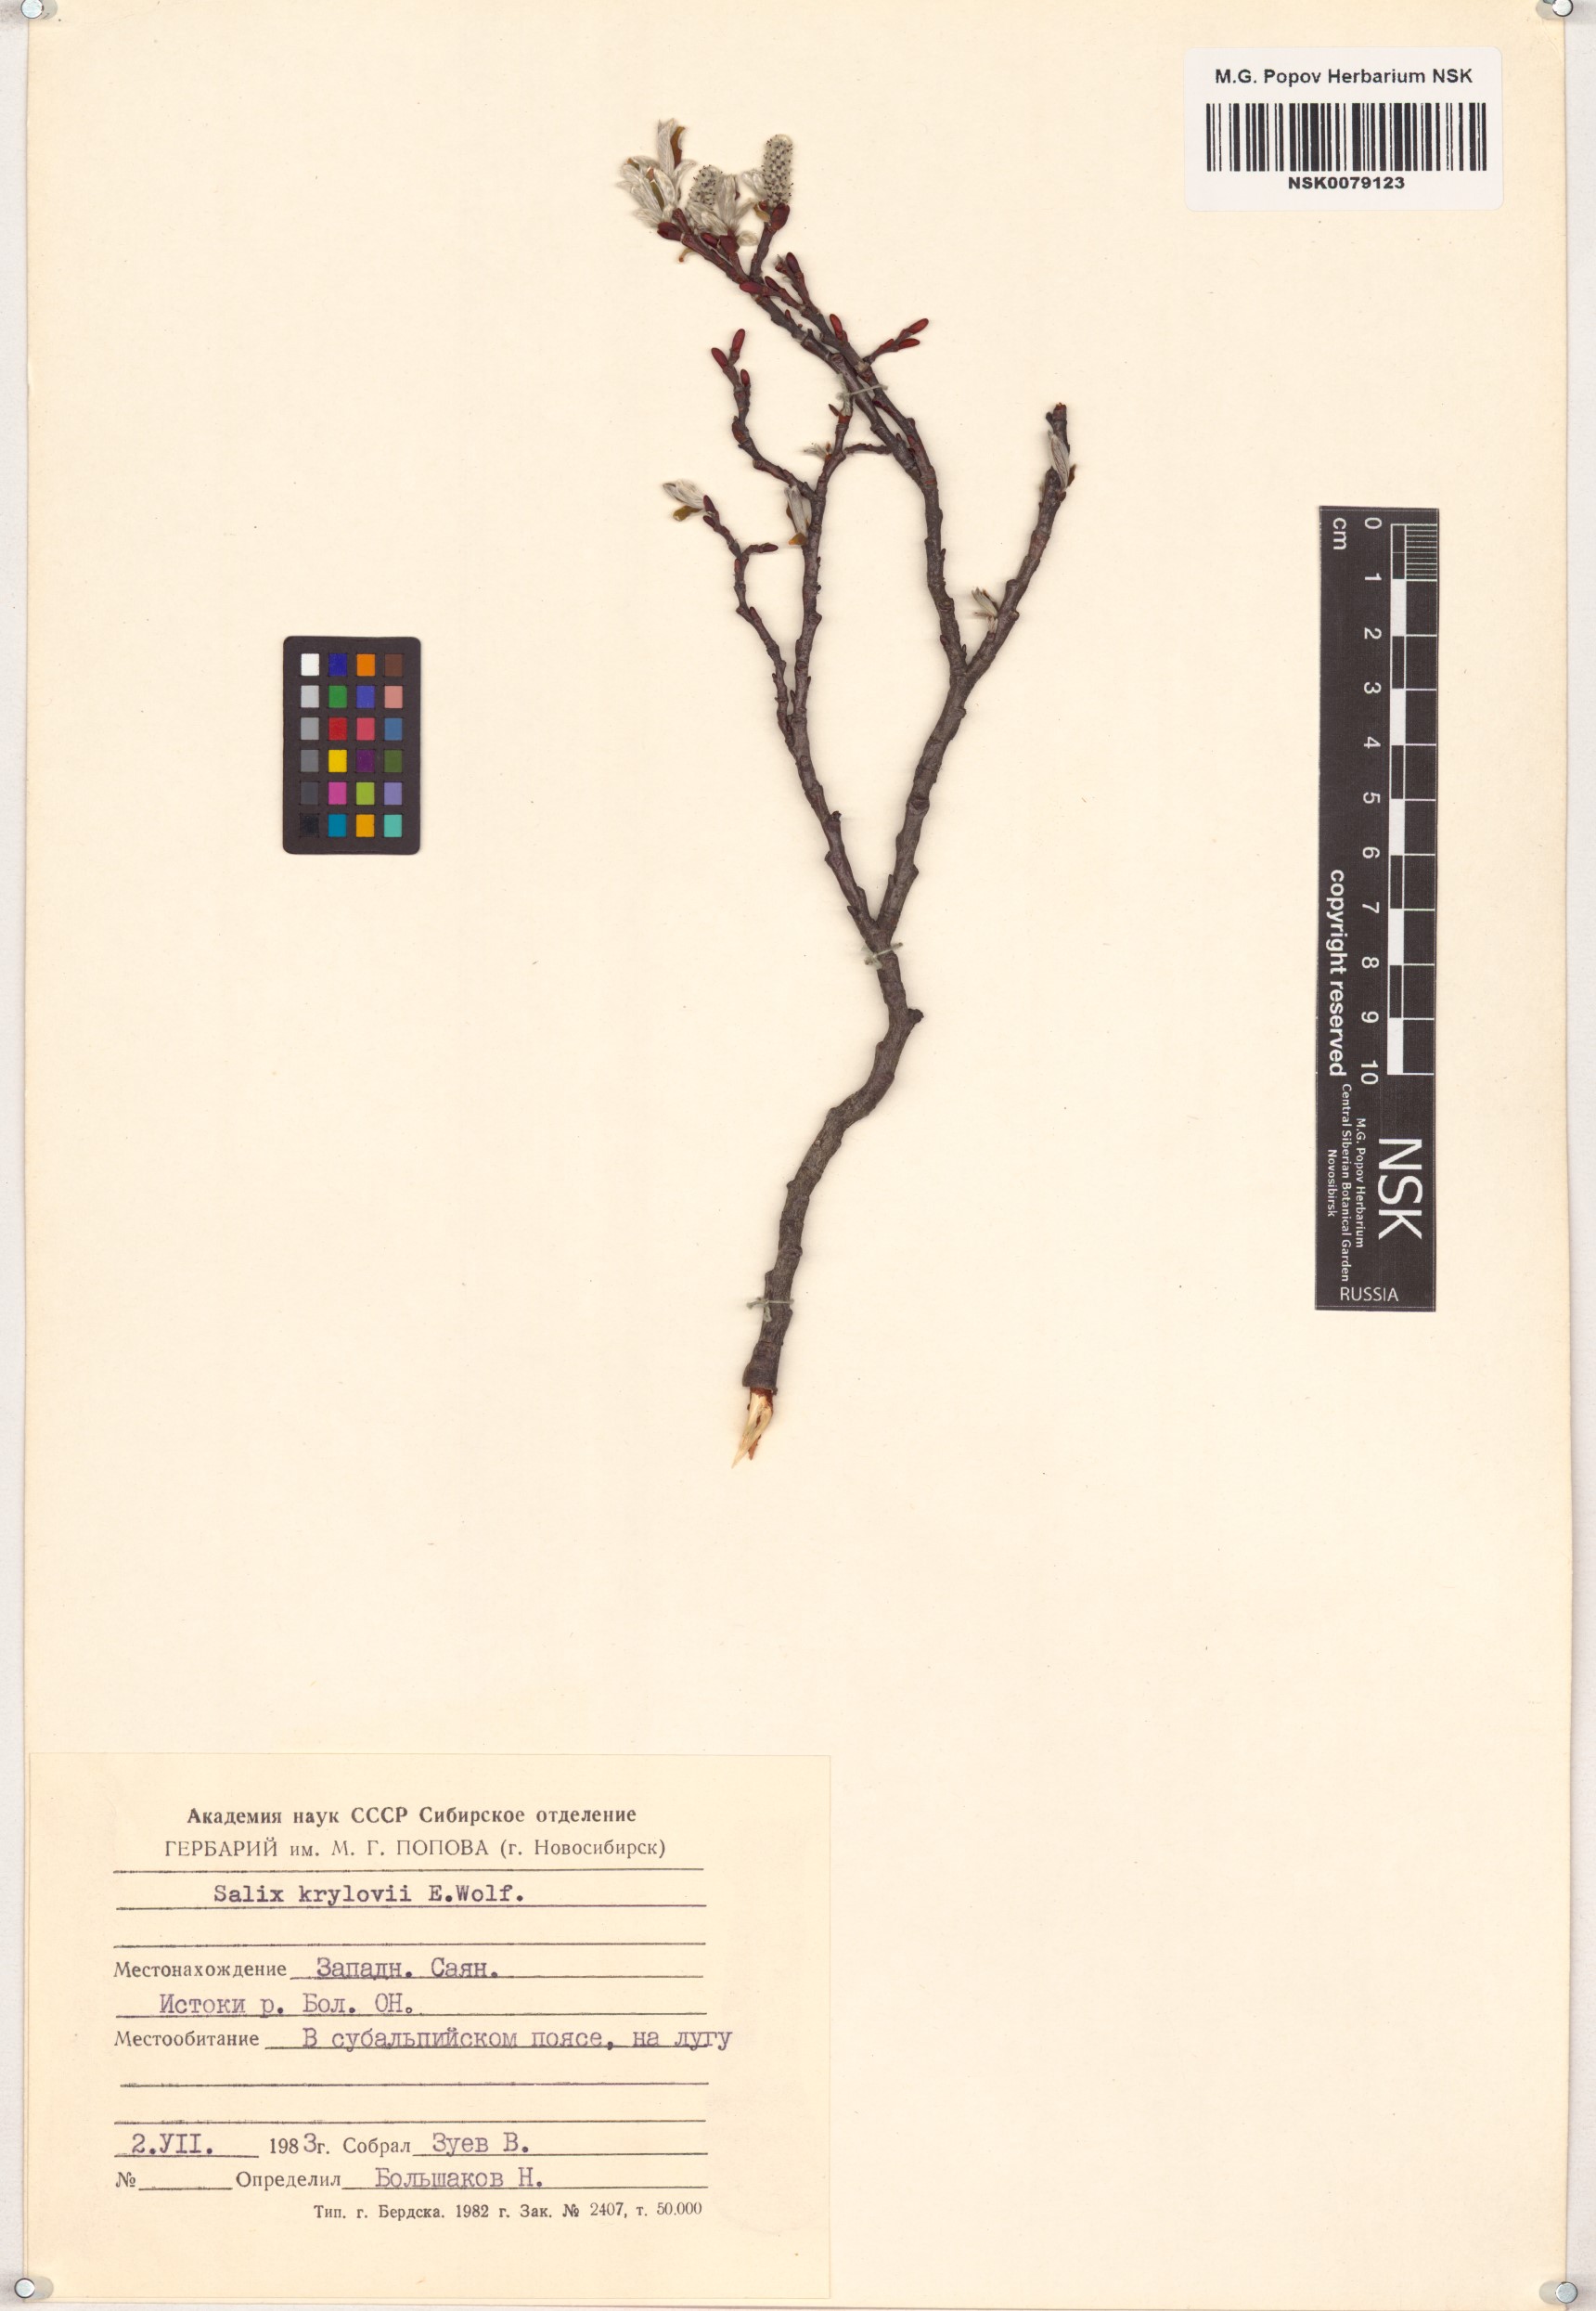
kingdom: Plantae
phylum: Tracheophyta
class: Magnoliopsida
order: Malpighiales
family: Salicaceae
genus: Salix
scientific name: Salix krylovii
